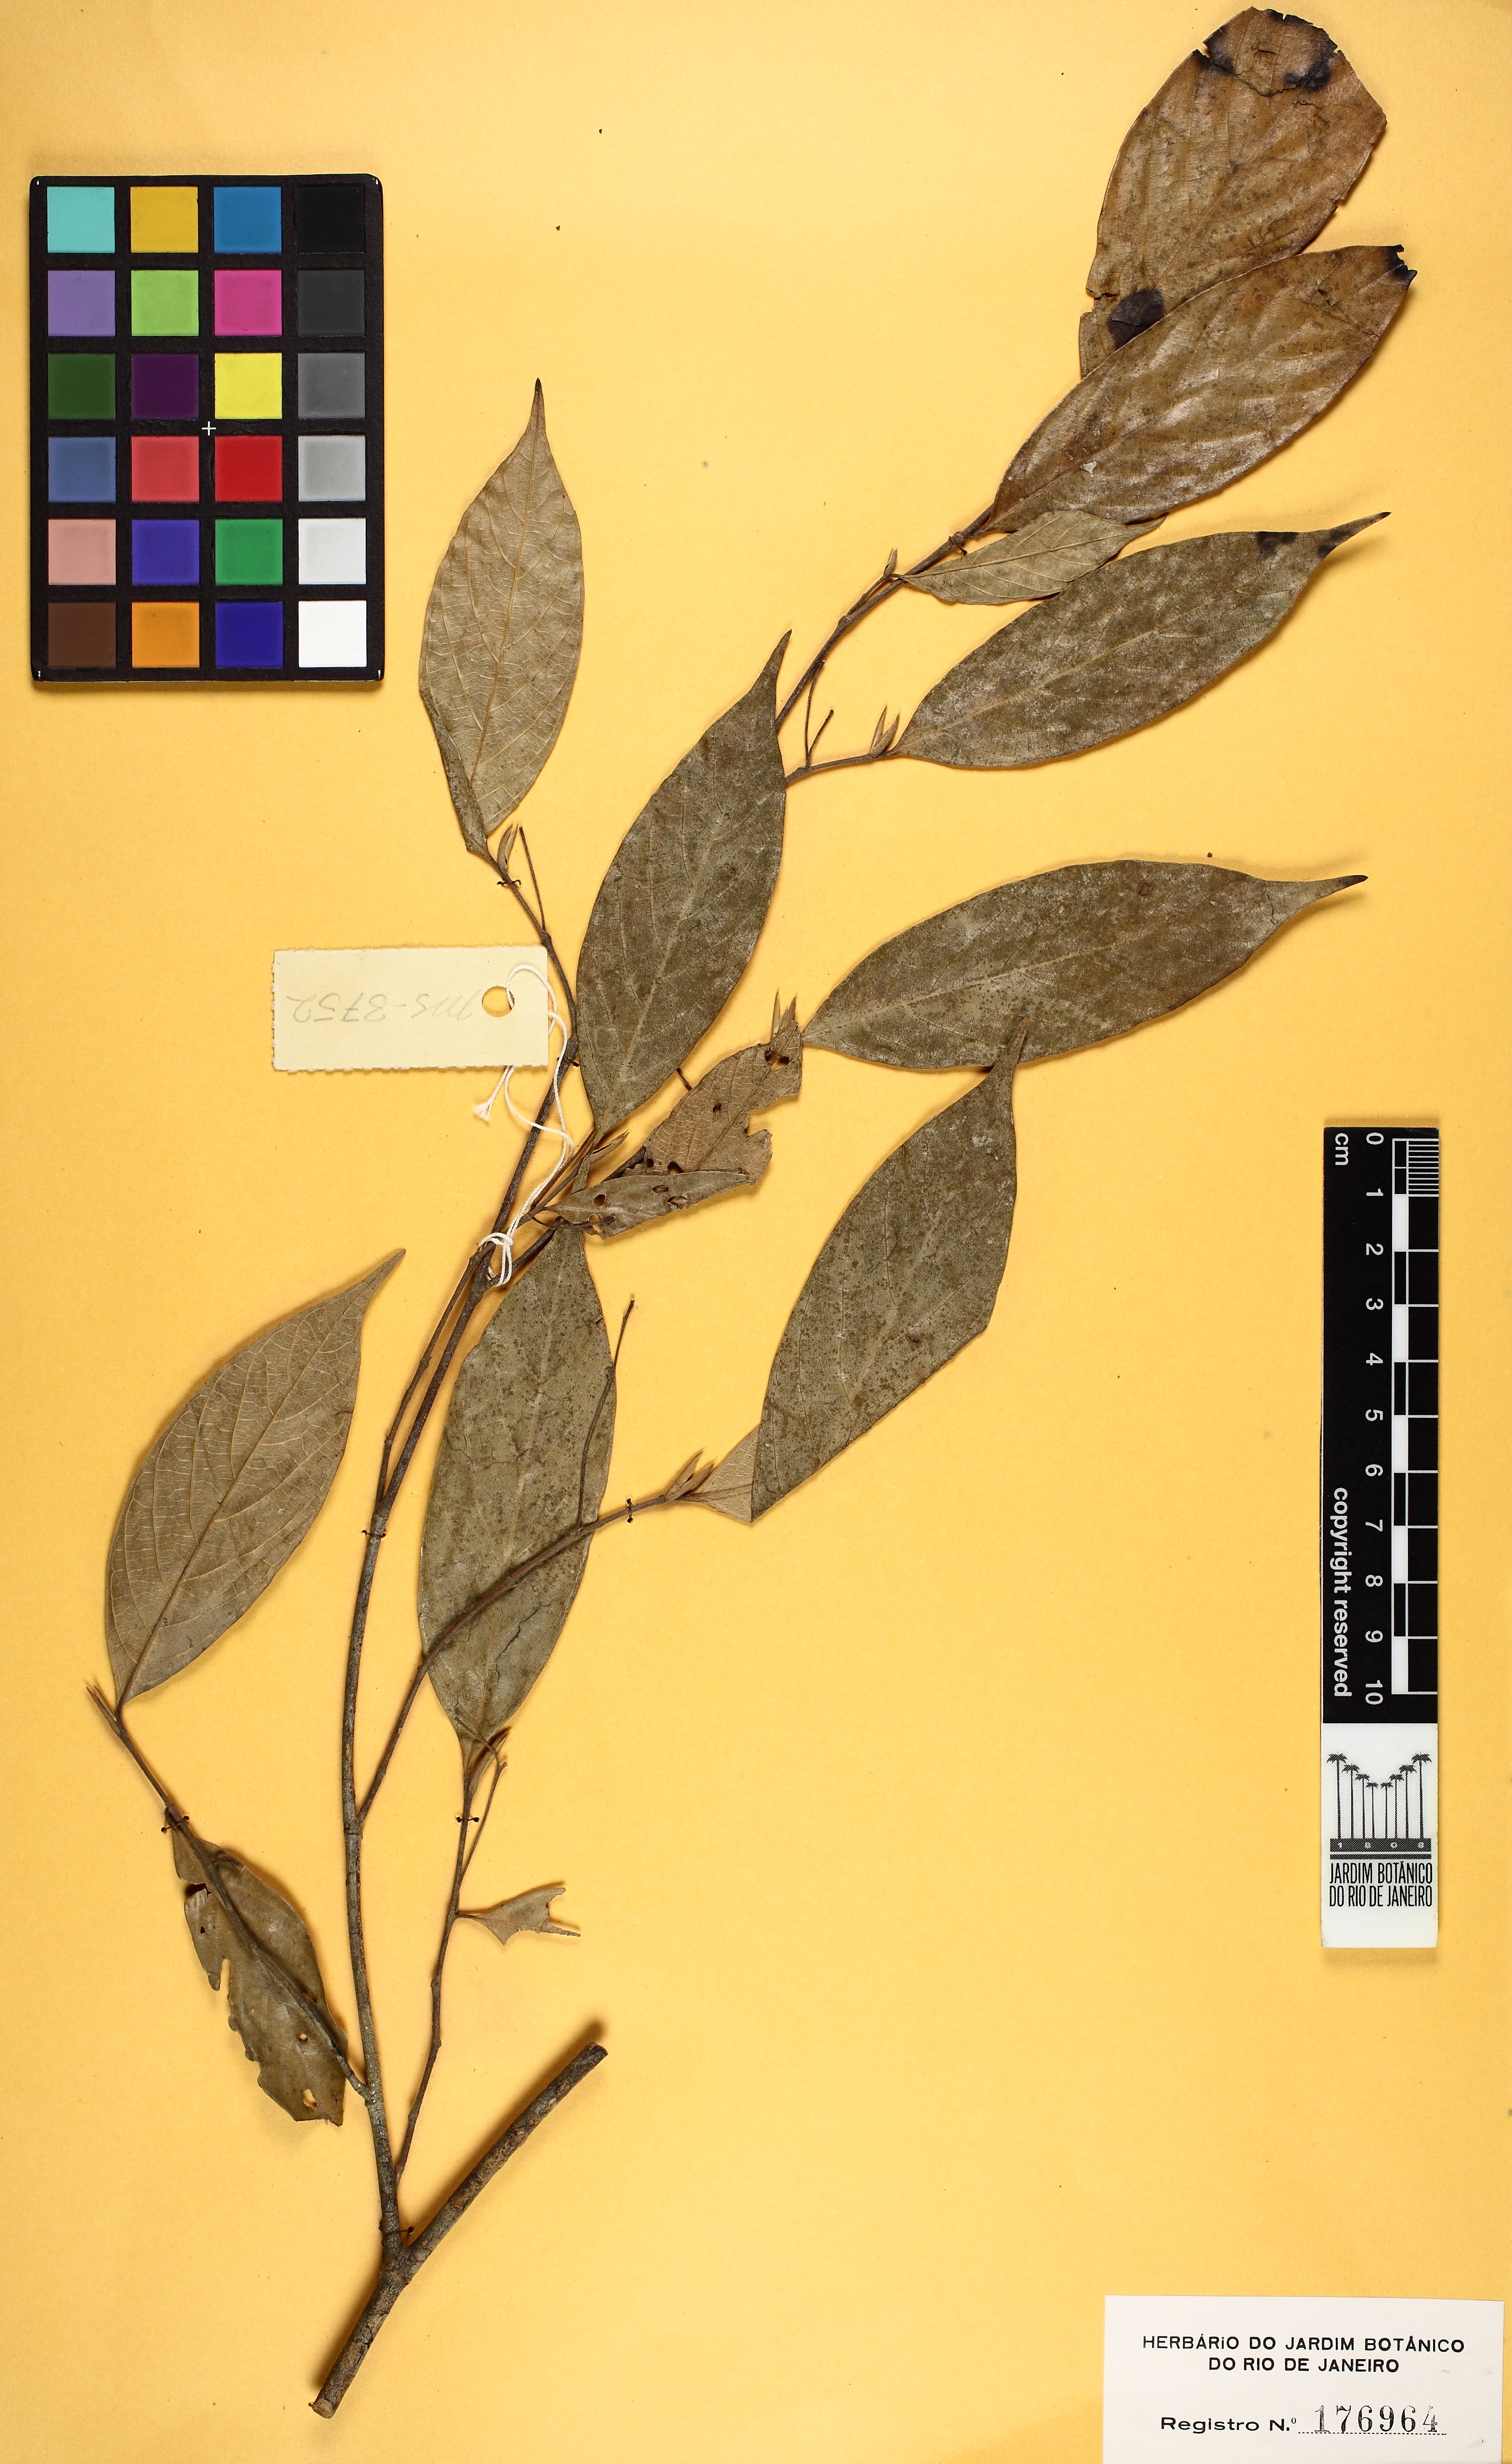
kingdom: Plantae
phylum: Tracheophyta
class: Magnoliopsida
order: Rosales
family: Cannabaceae
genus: Gironniera
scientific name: Gironniera parvifolia
